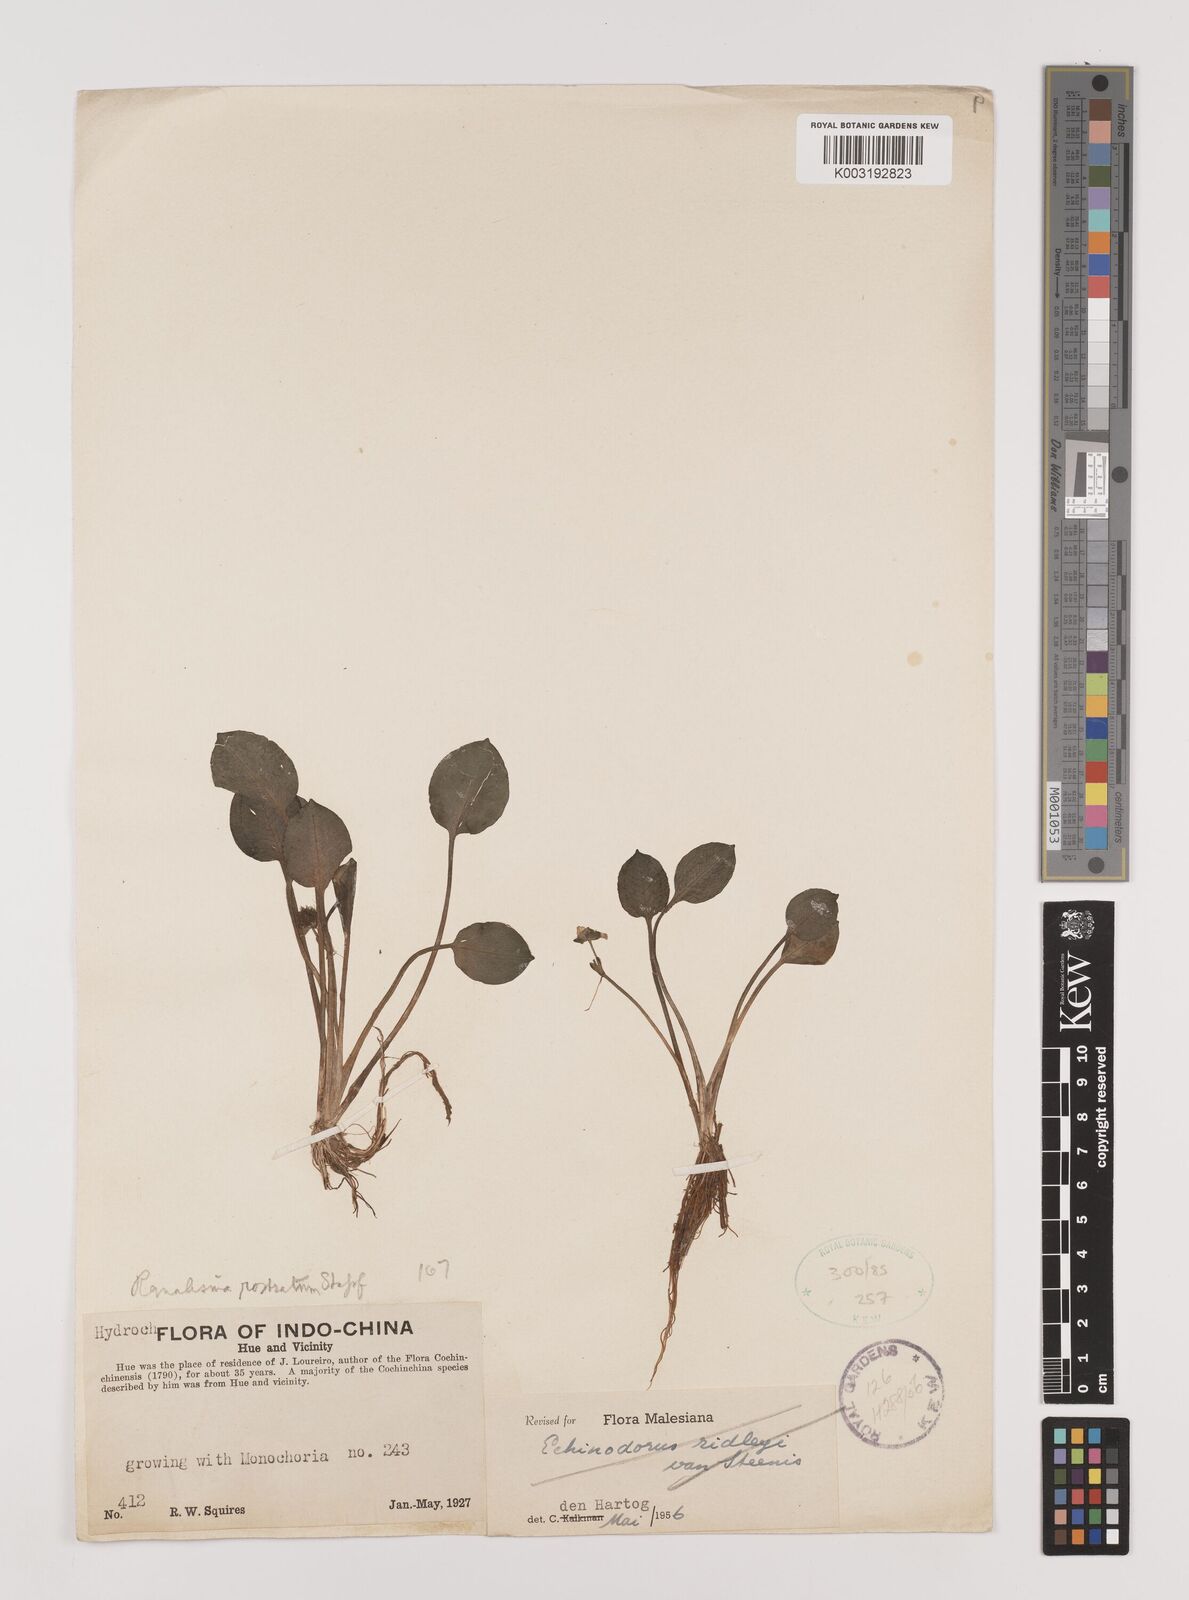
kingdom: Plantae
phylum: Tracheophyta
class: Liliopsida
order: Alismatales
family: Alismataceae
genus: Ranalisma
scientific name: Ranalisma rostrata
